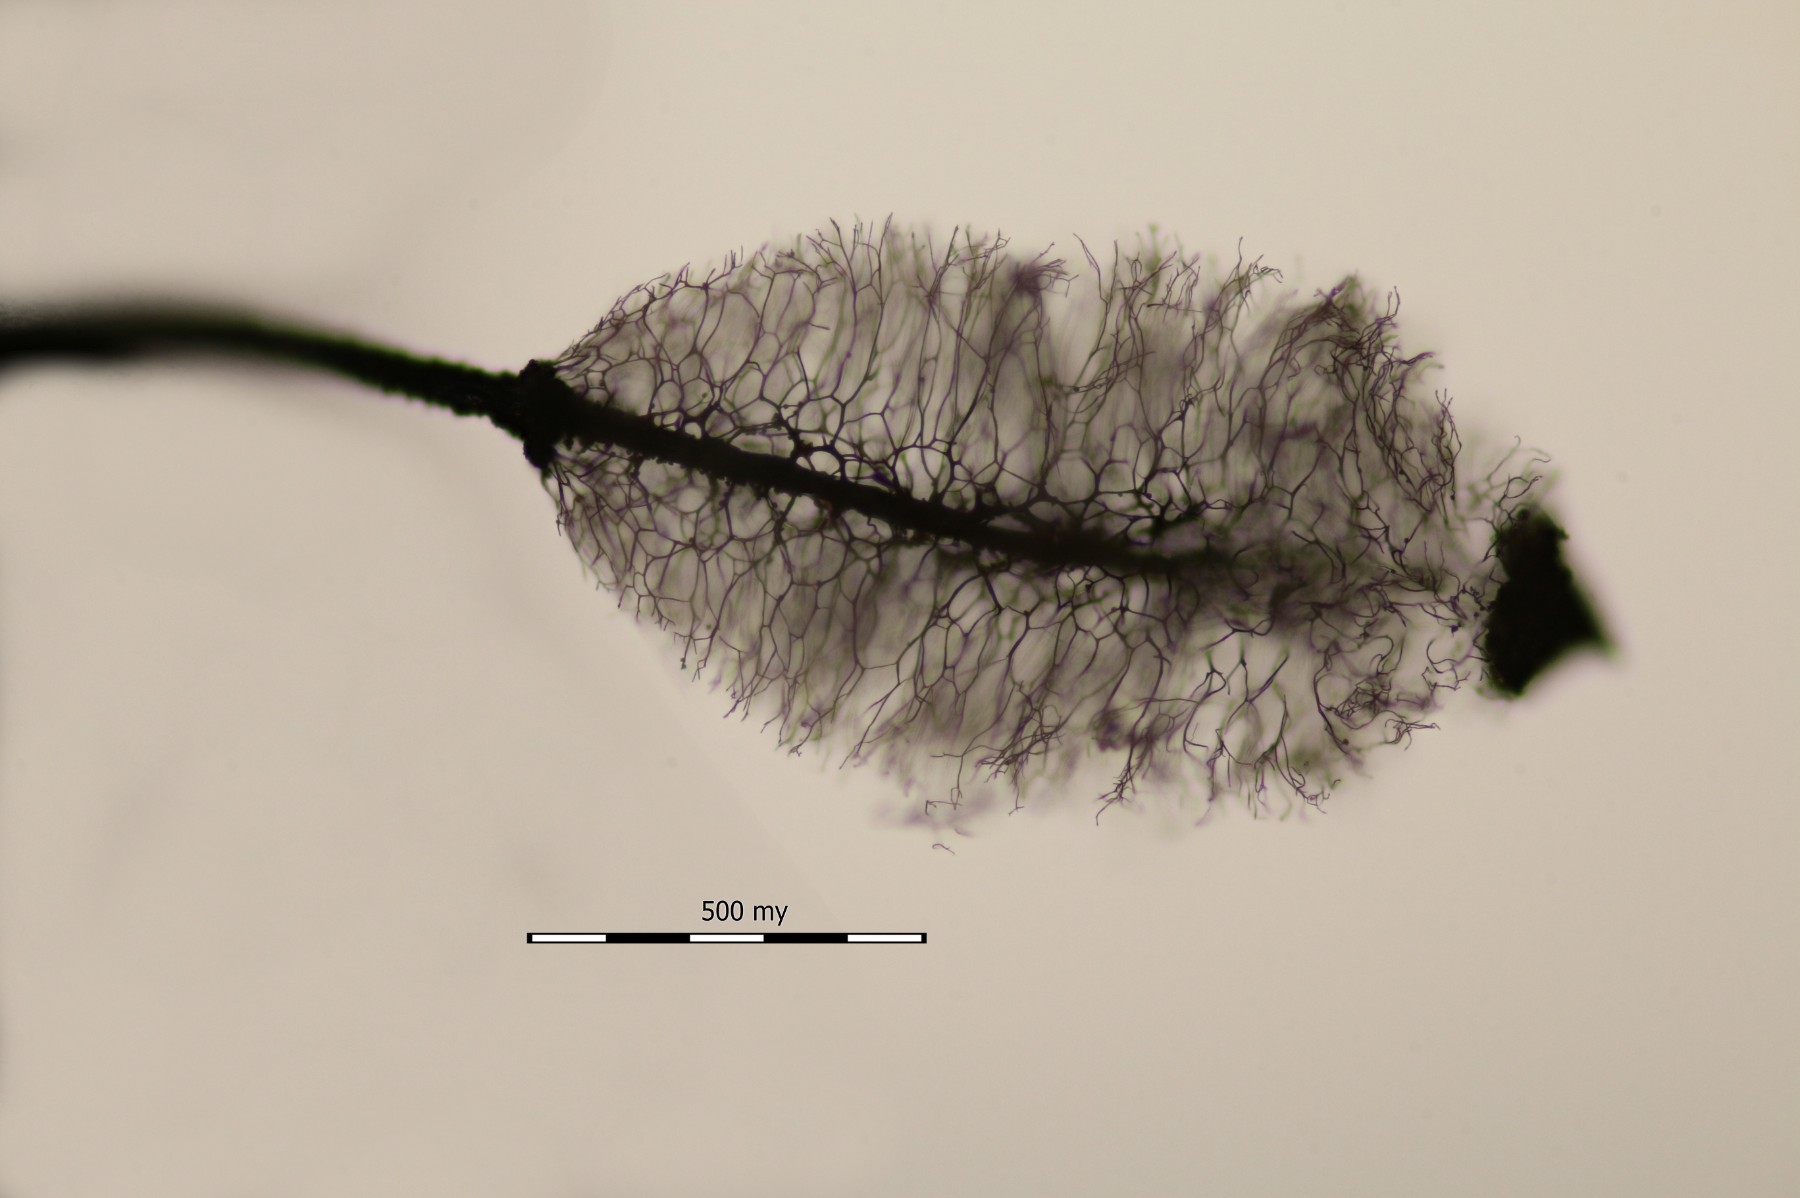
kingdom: Protozoa
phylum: Mycetozoa
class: Myxomycetes
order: Stemonitidales
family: Stemonitidaceae
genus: Macbrideola
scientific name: Macbrideola reticulospora
